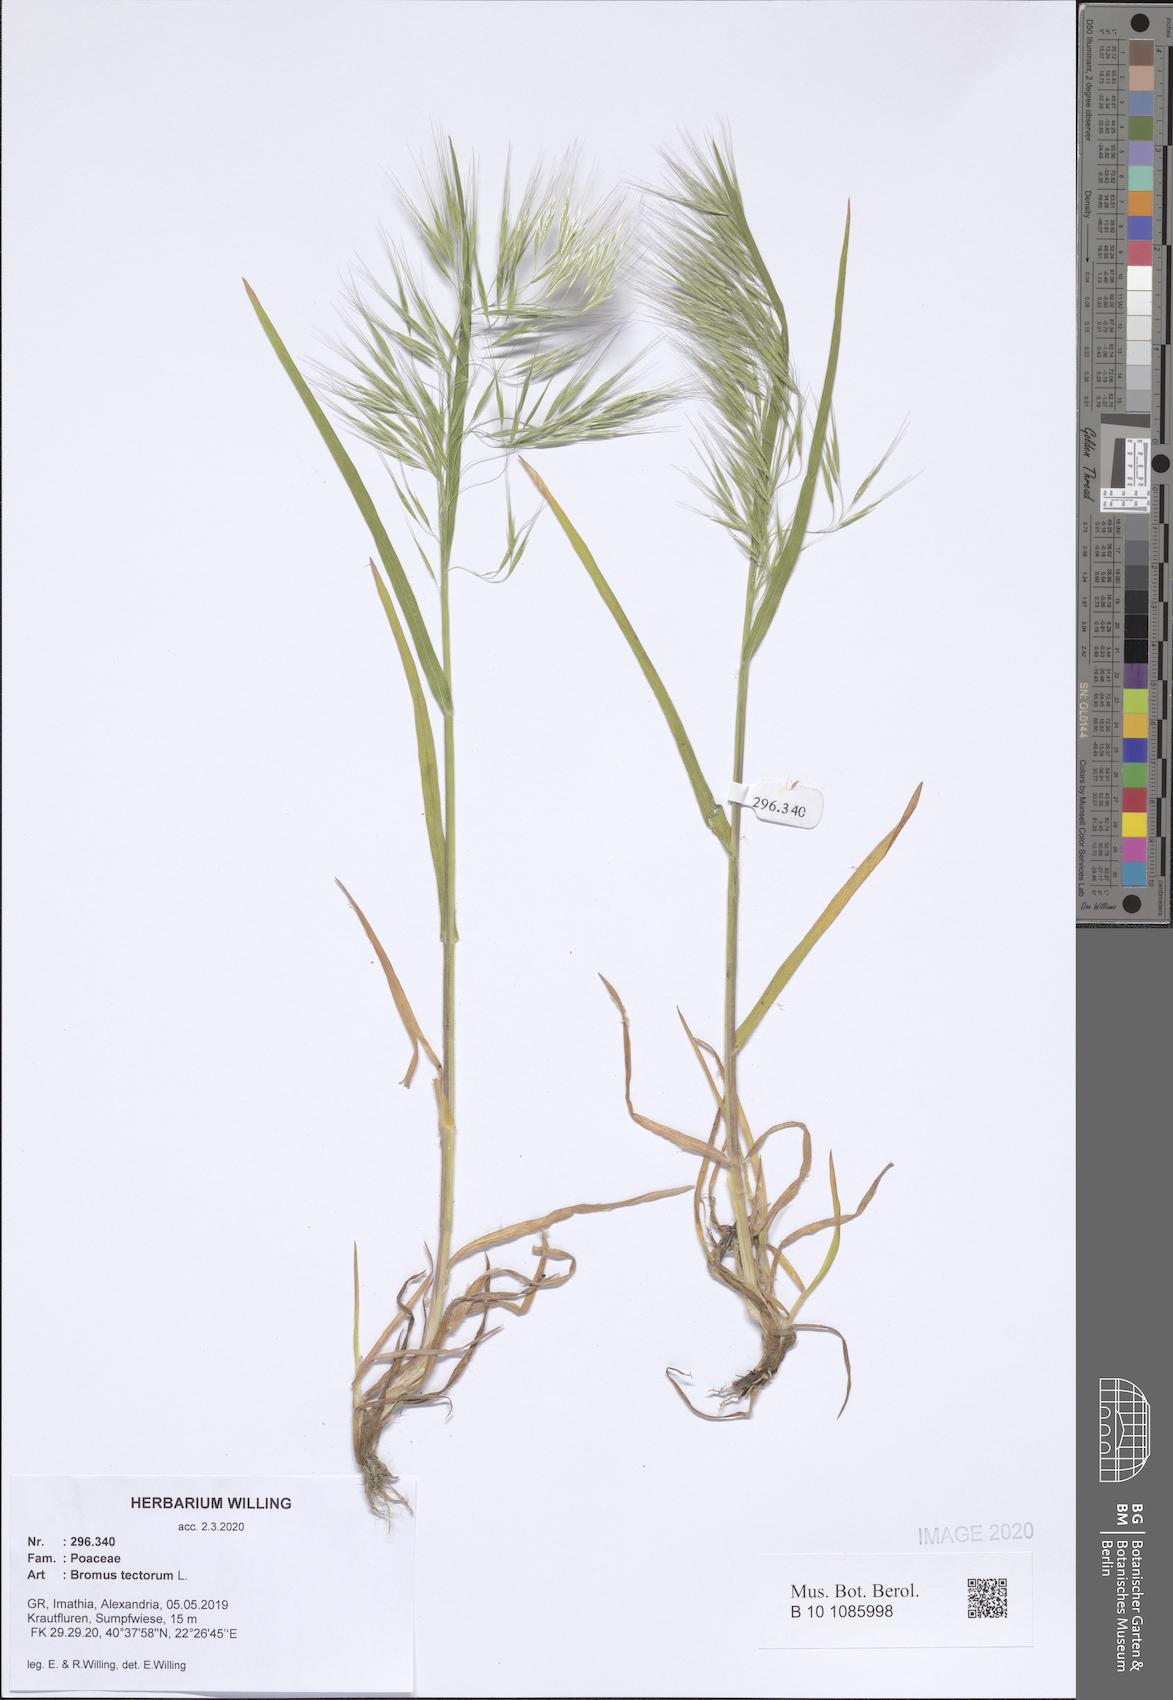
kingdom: Plantae
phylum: Tracheophyta
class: Liliopsida
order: Poales
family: Poaceae
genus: Bromus
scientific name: Bromus tectorum
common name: Cheatgrass
